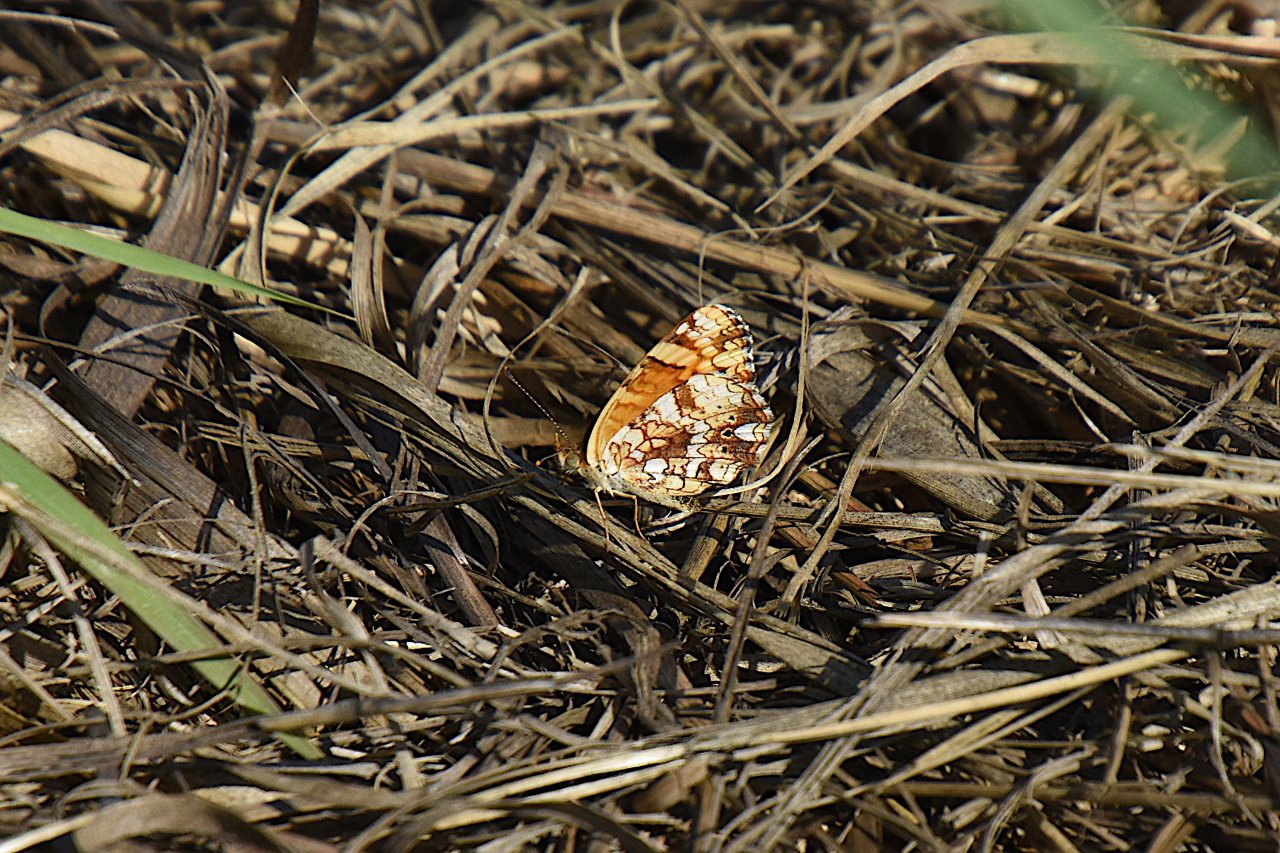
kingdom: Animalia
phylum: Arthropoda
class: Insecta
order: Lepidoptera
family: Nymphalidae
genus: Eresia
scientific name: Eresia aveyrona
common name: Mylitta Crescent
